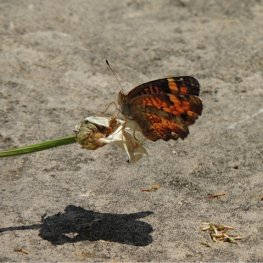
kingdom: Animalia
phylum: Arthropoda
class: Insecta
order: Lepidoptera
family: Nymphalidae
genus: Phyciodes
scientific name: Phyciodes tharos
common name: Pearl Crescent
